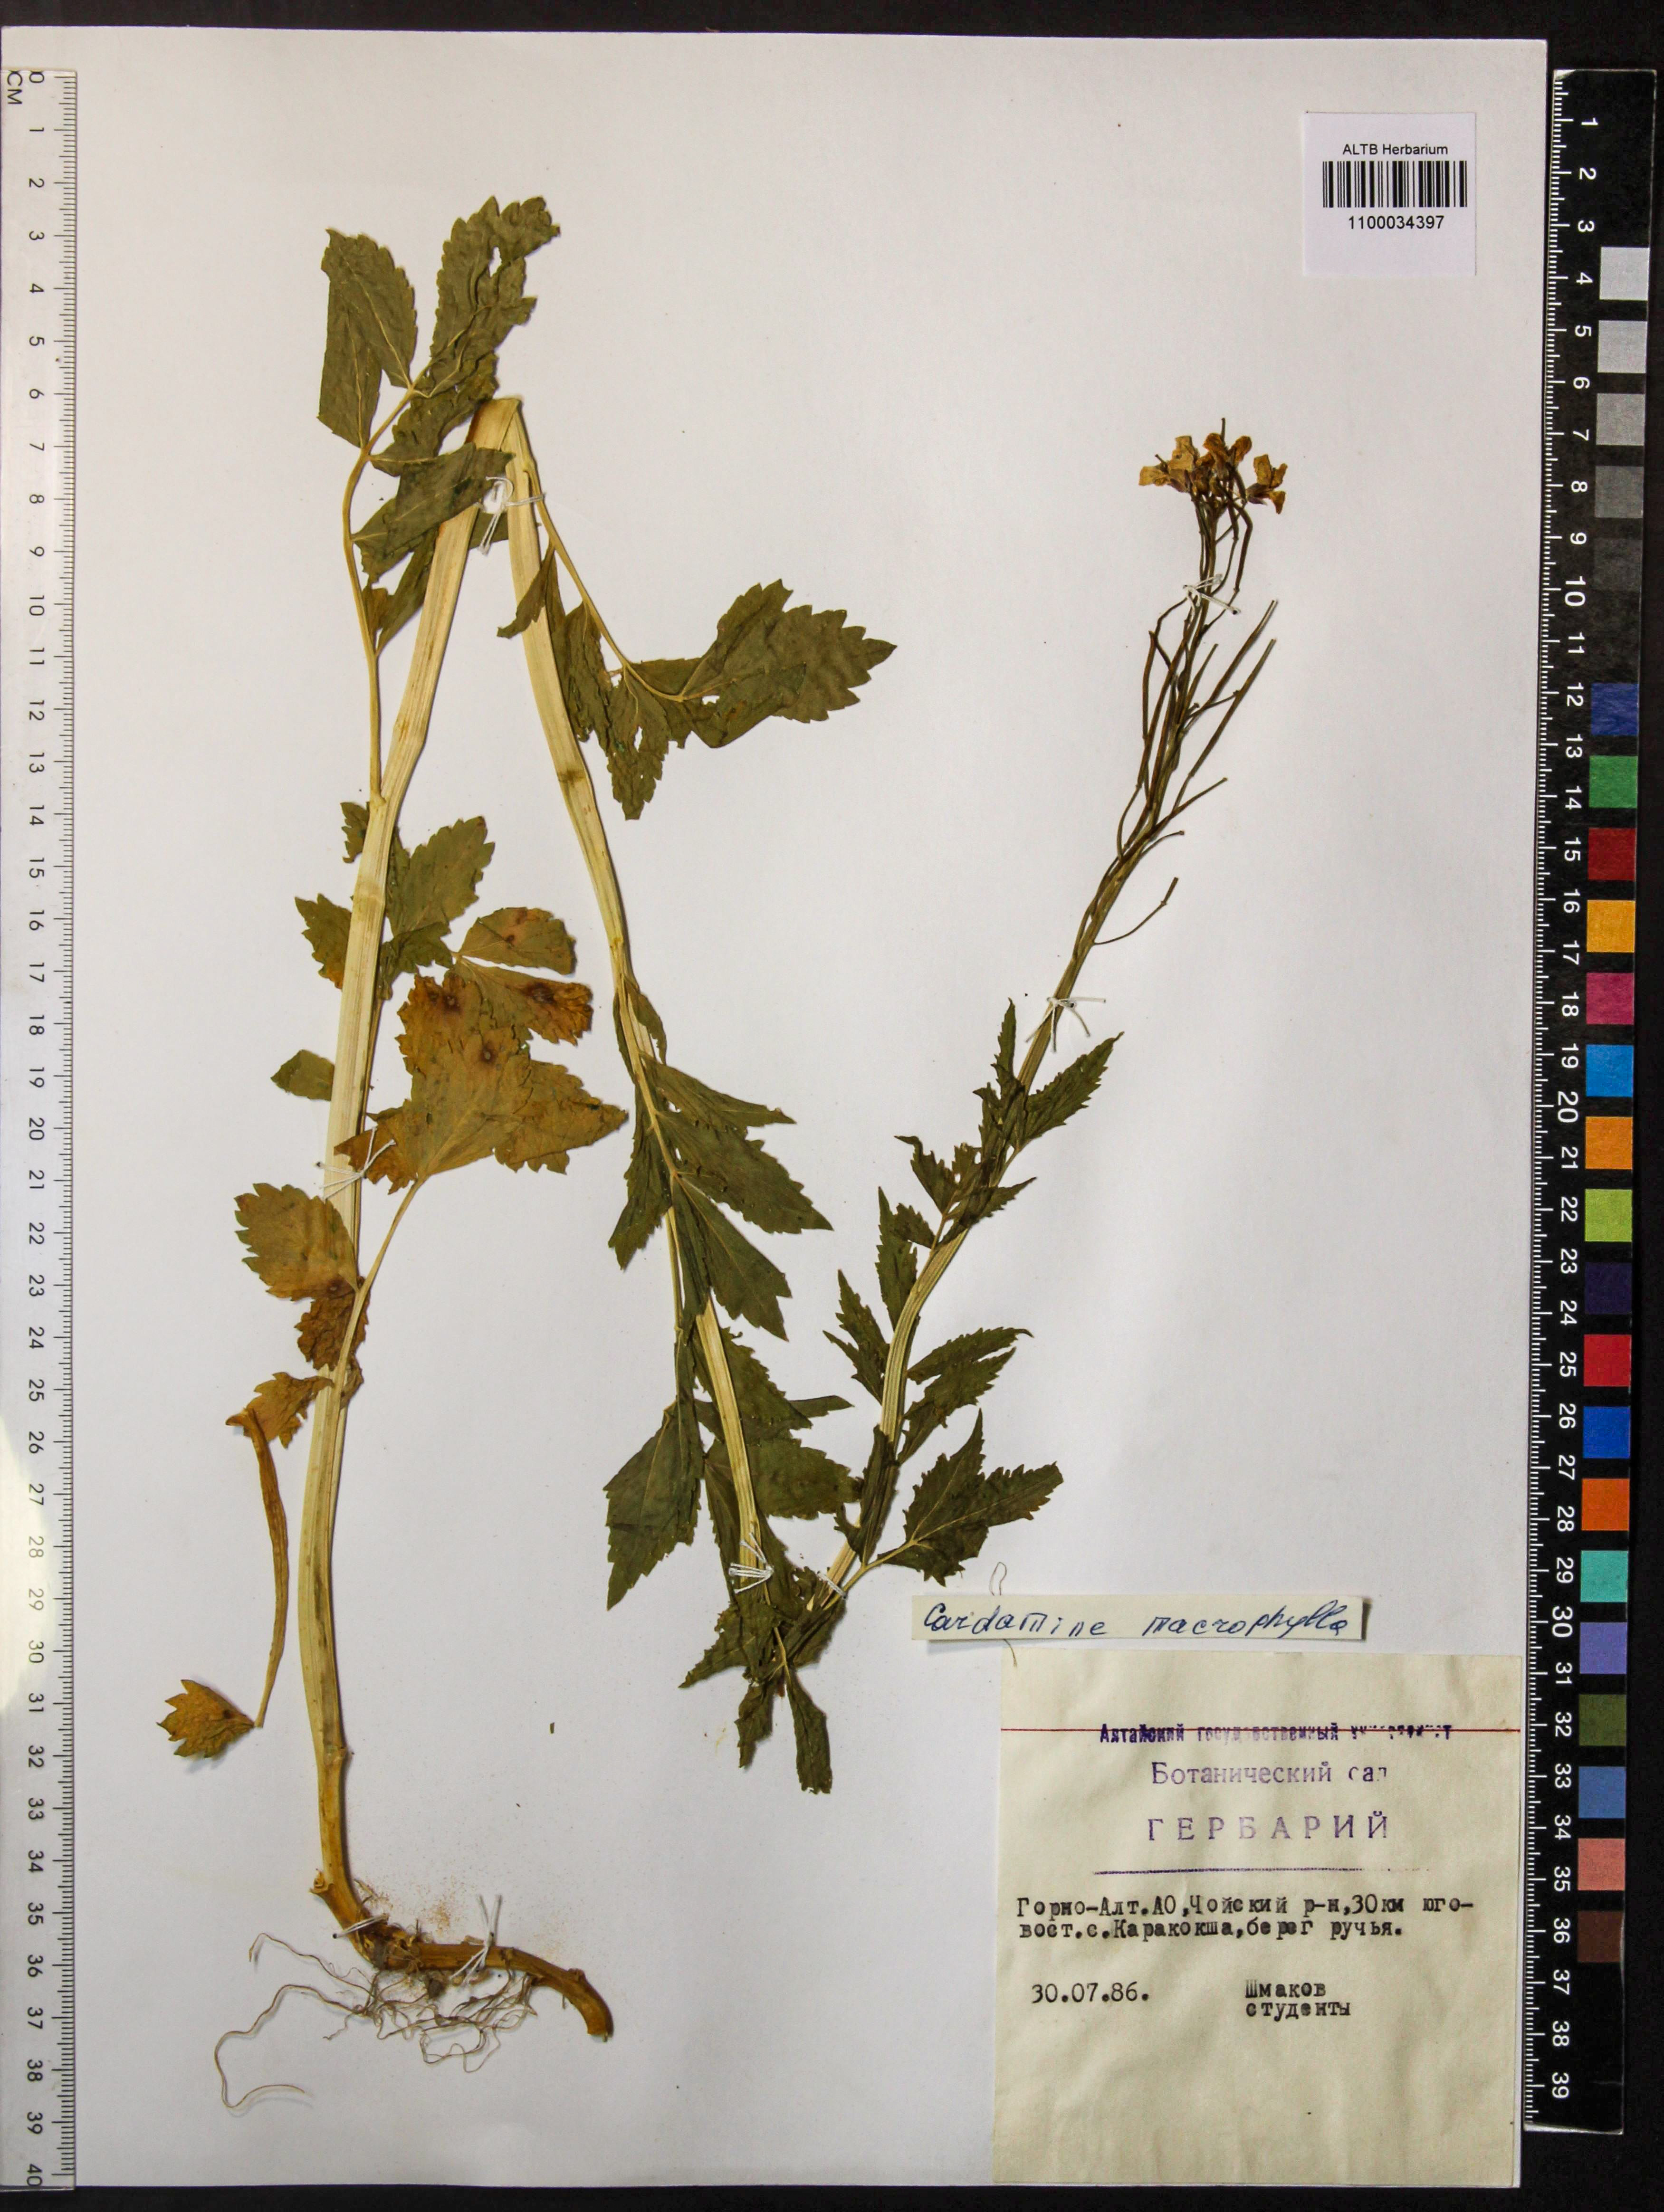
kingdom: Plantae
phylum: Tracheophyta
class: Magnoliopsida
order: Brassicales
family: Brassicaceae
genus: Cardamine
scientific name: Cardamine macrophylla
